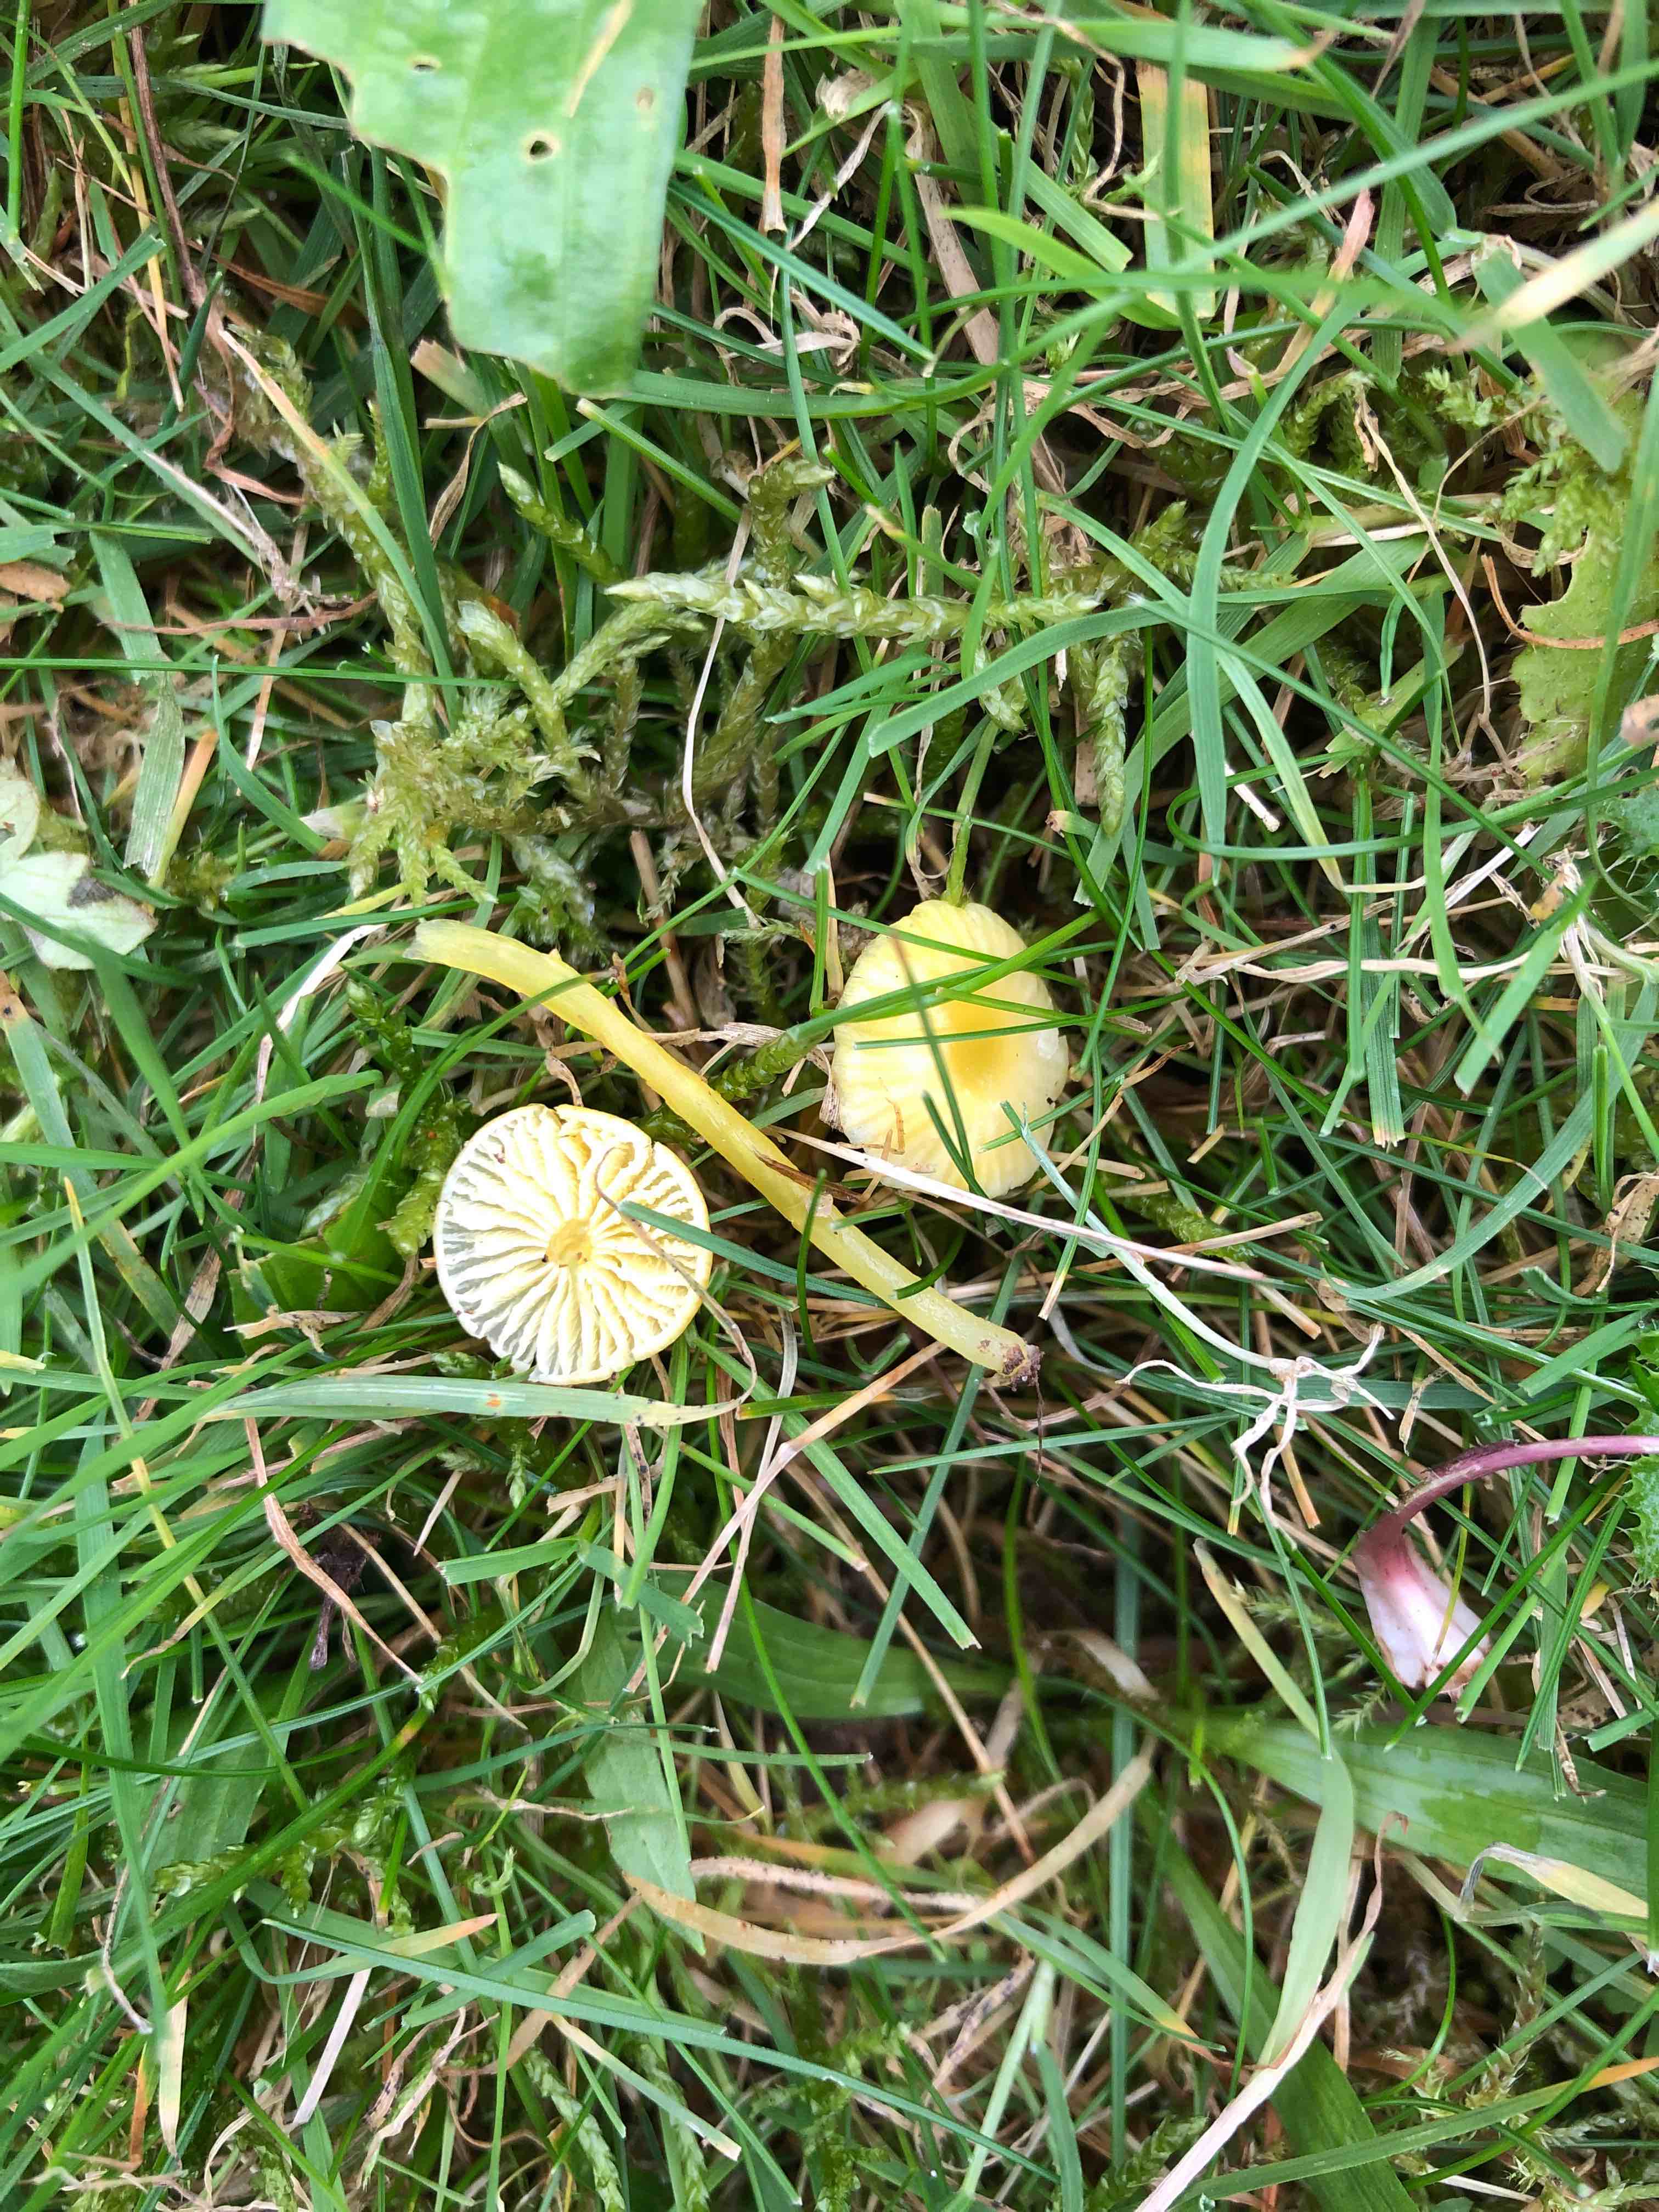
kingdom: Fungi
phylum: Basidiomycota
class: Agaricomycetes
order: Agaricales
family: Hygrophoraceae
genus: Hygrocybe
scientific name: Hygrocybe glutinipes
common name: slimstokket vokshat
